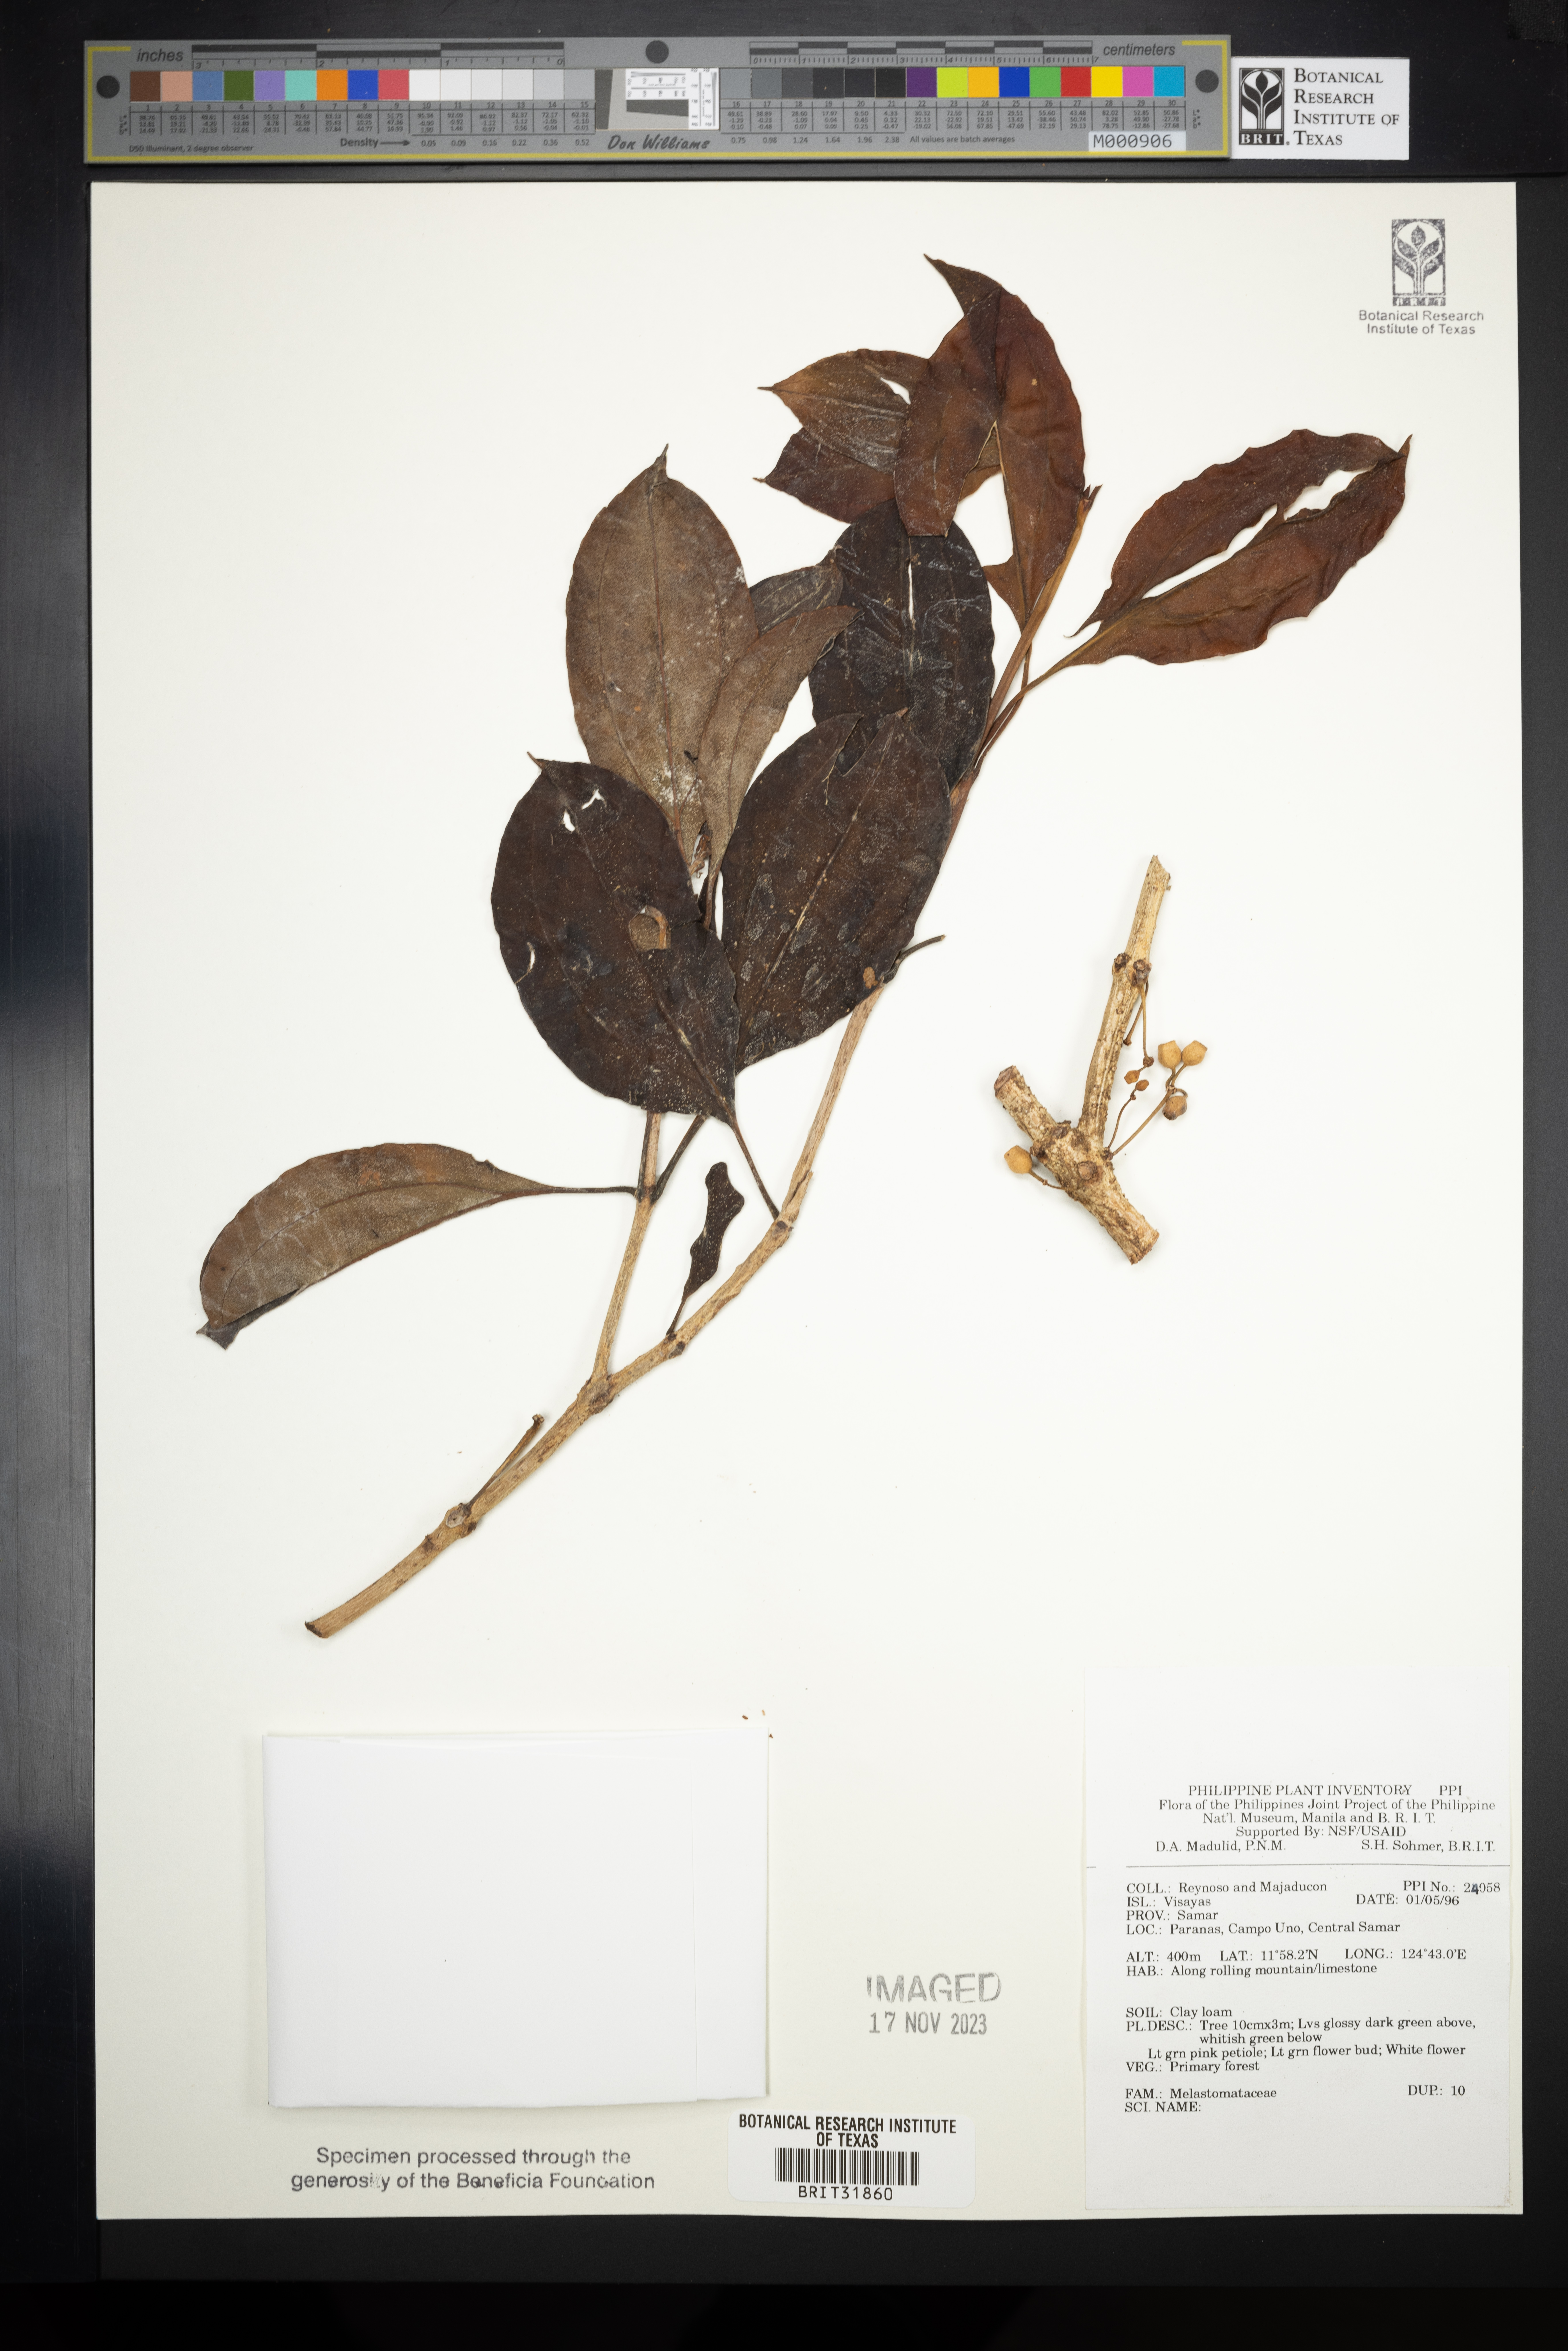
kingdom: Plantae
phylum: Tracheophyta
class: Magnoliopsida
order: Myrtales
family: Melastomataceae
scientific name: Melastomataceae
